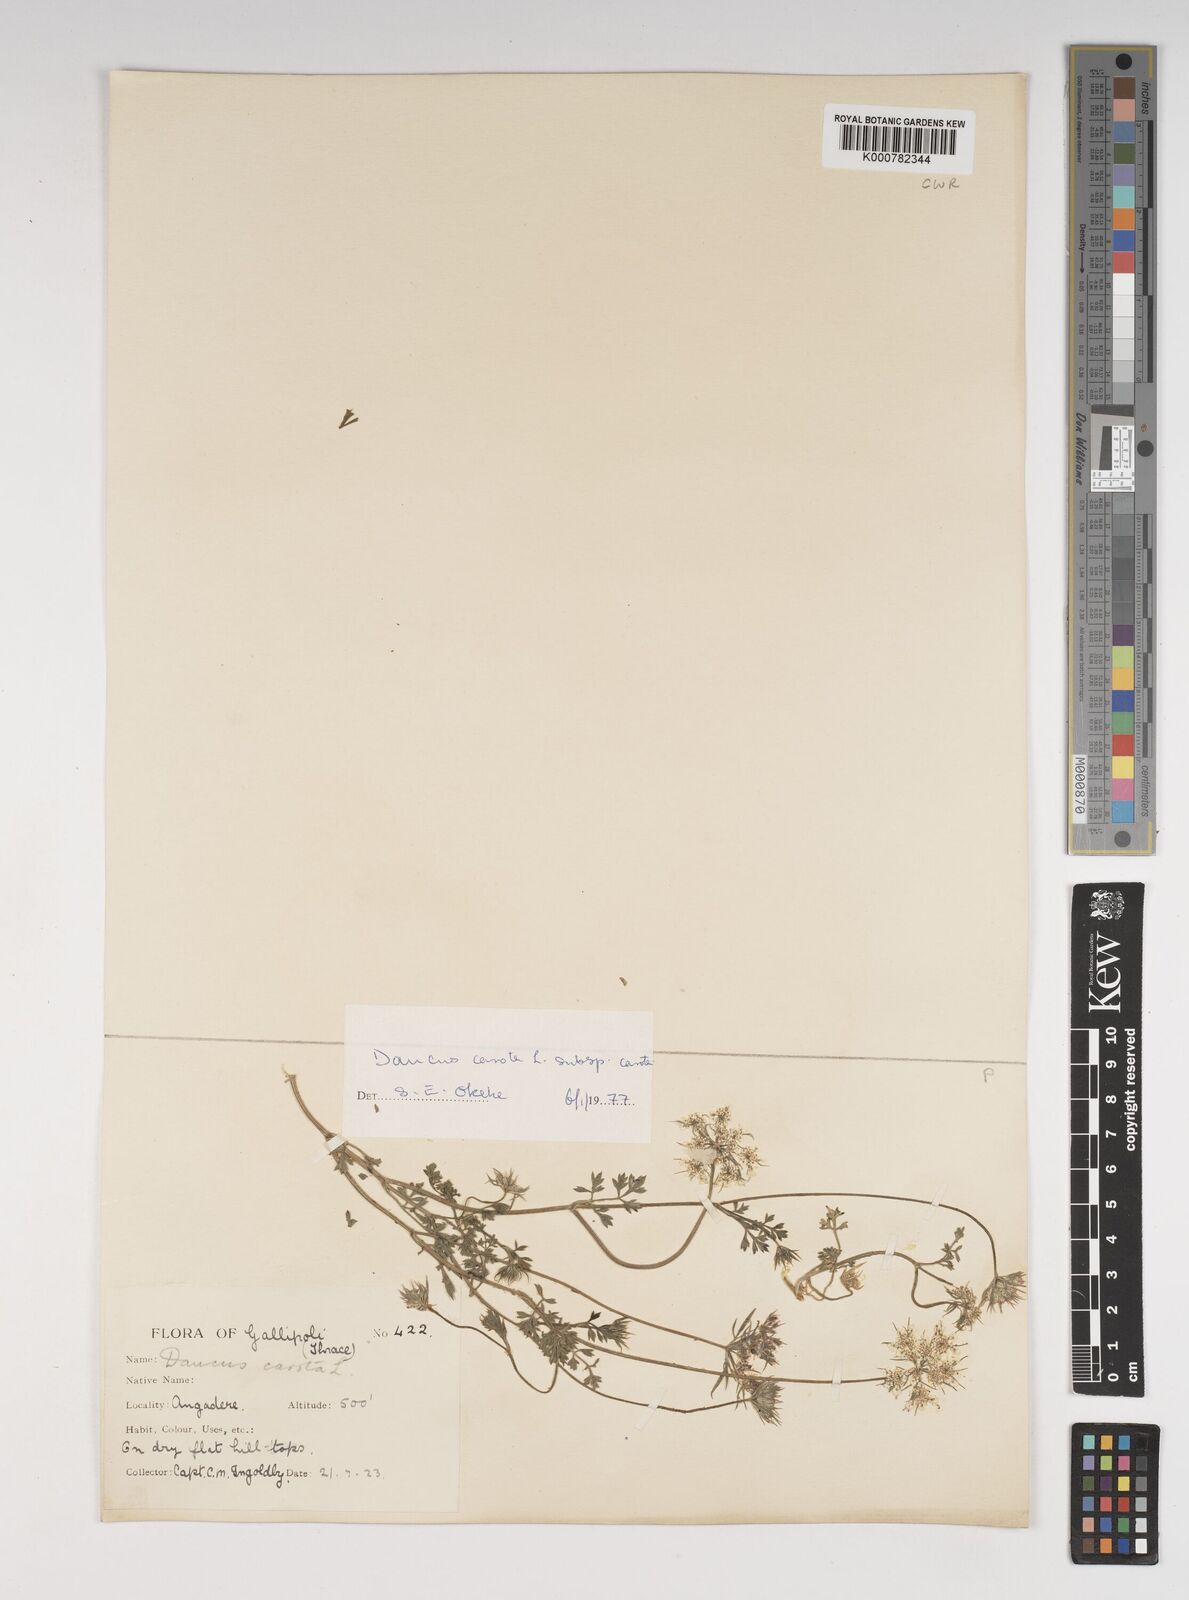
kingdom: Plantae
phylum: Tracheophyta
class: Magnoliopsida
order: Apiales
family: Apiaceae
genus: Daucus
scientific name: Daucus carota
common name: Wild carrot
